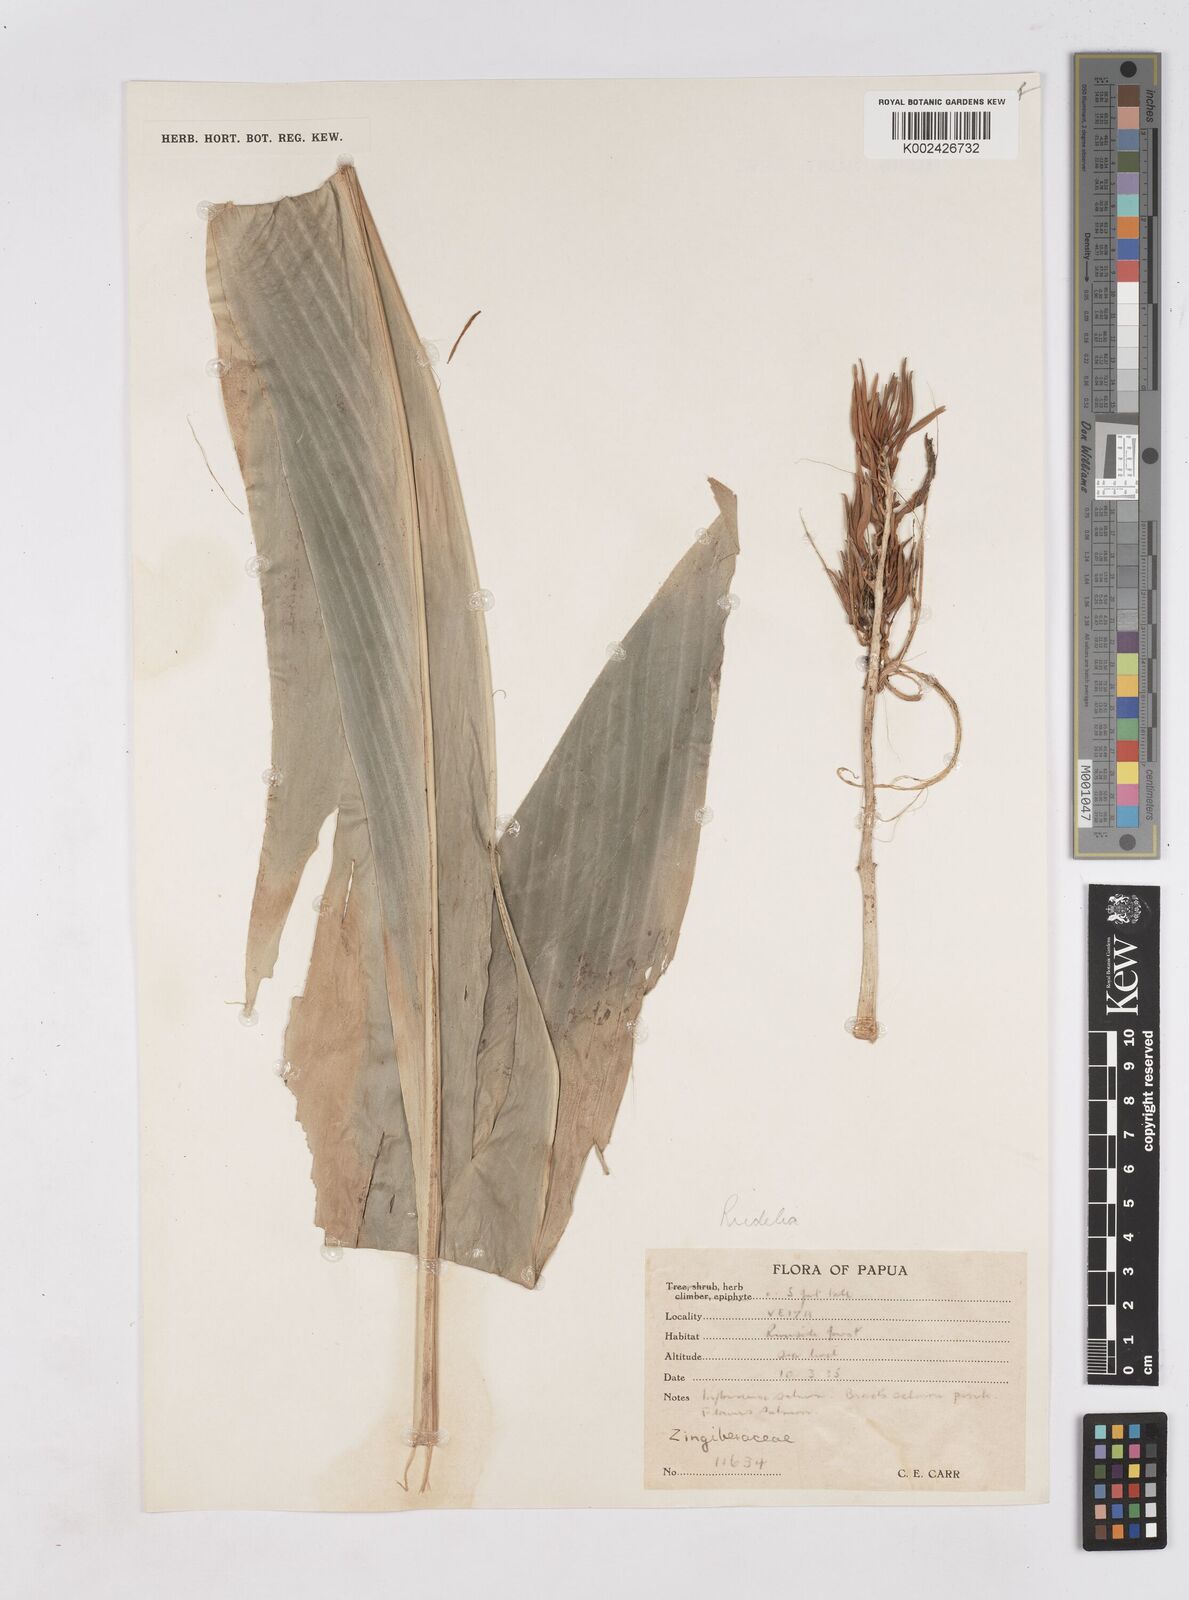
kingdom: Plantae
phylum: Tracheophyta
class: Liliopsida
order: Zingiberales
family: Zingiberaceae
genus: Riedelia
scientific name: Riedelia corallina
